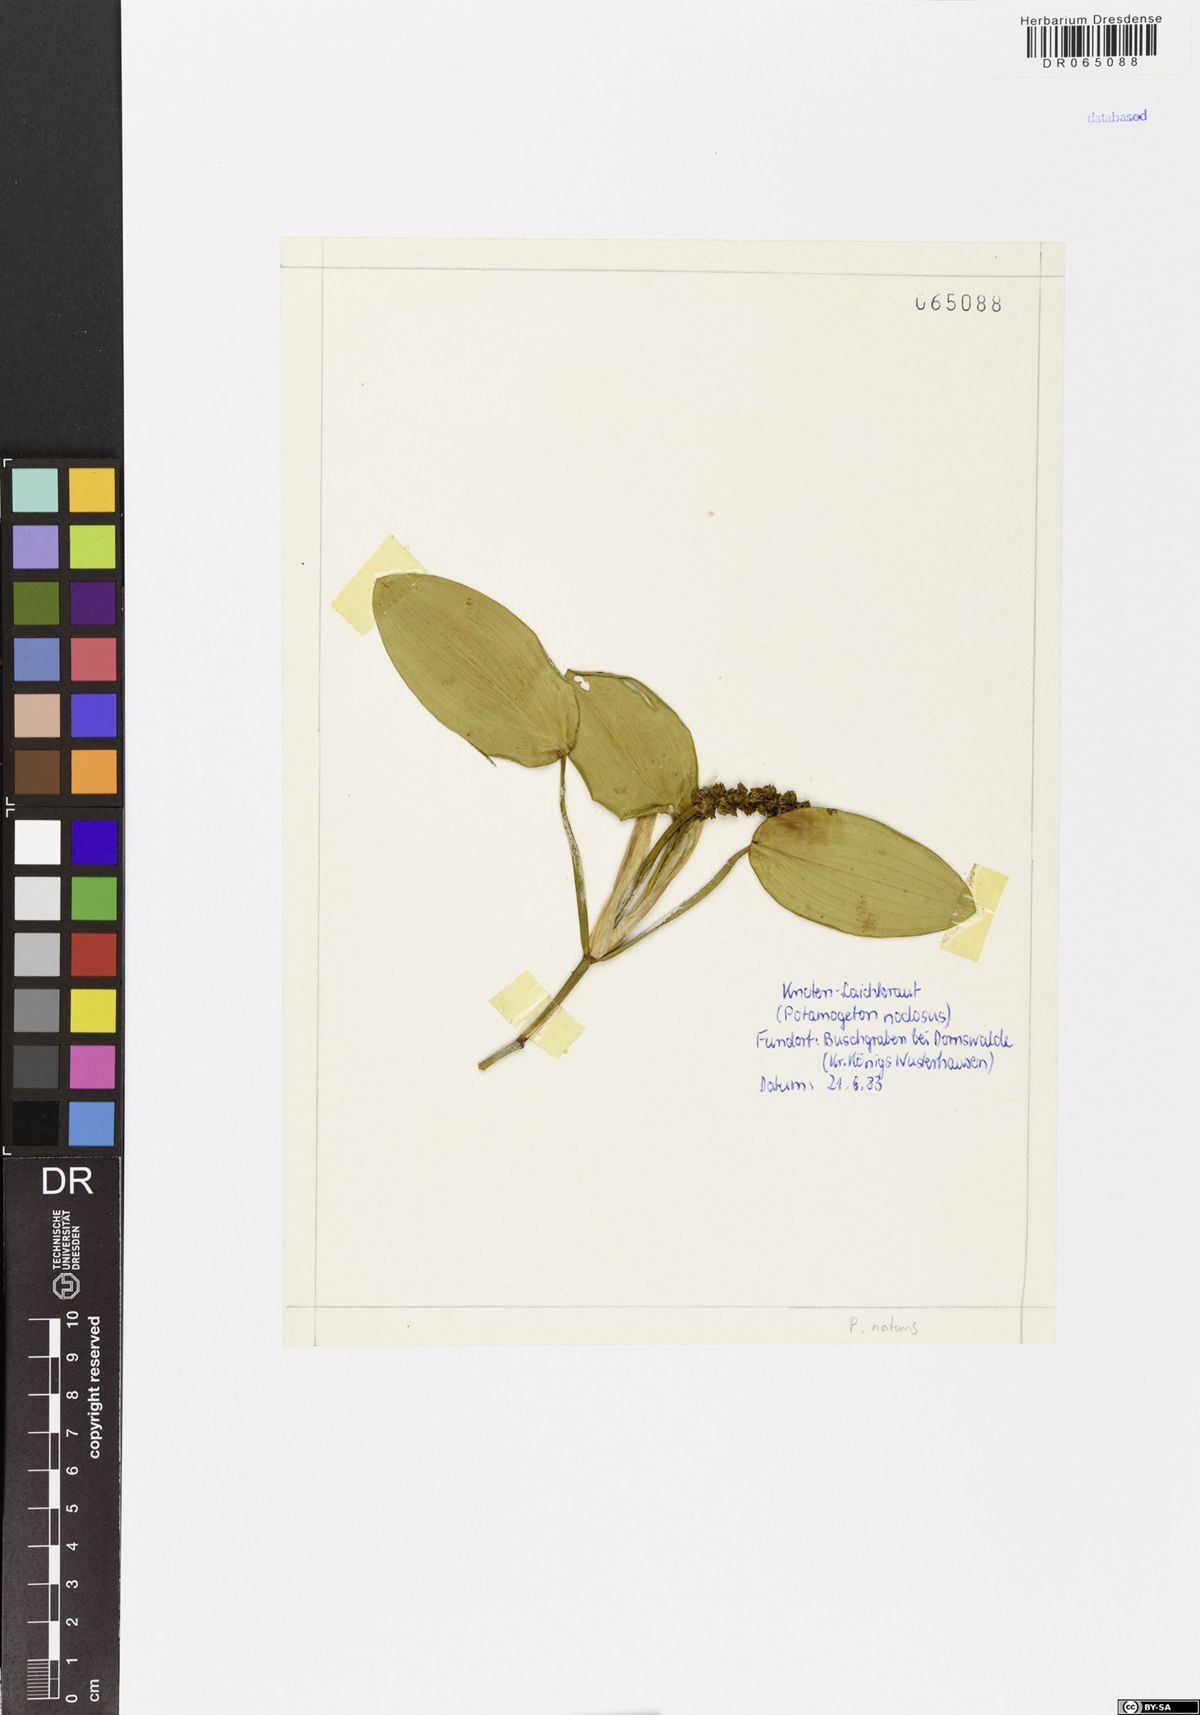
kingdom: Plantae
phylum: Tracheophyta
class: Liliopsida
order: Alismatales
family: Potamogetonaceae
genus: Potamogeton
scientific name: Potamogeton nodosus
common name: Loddon pondweed
